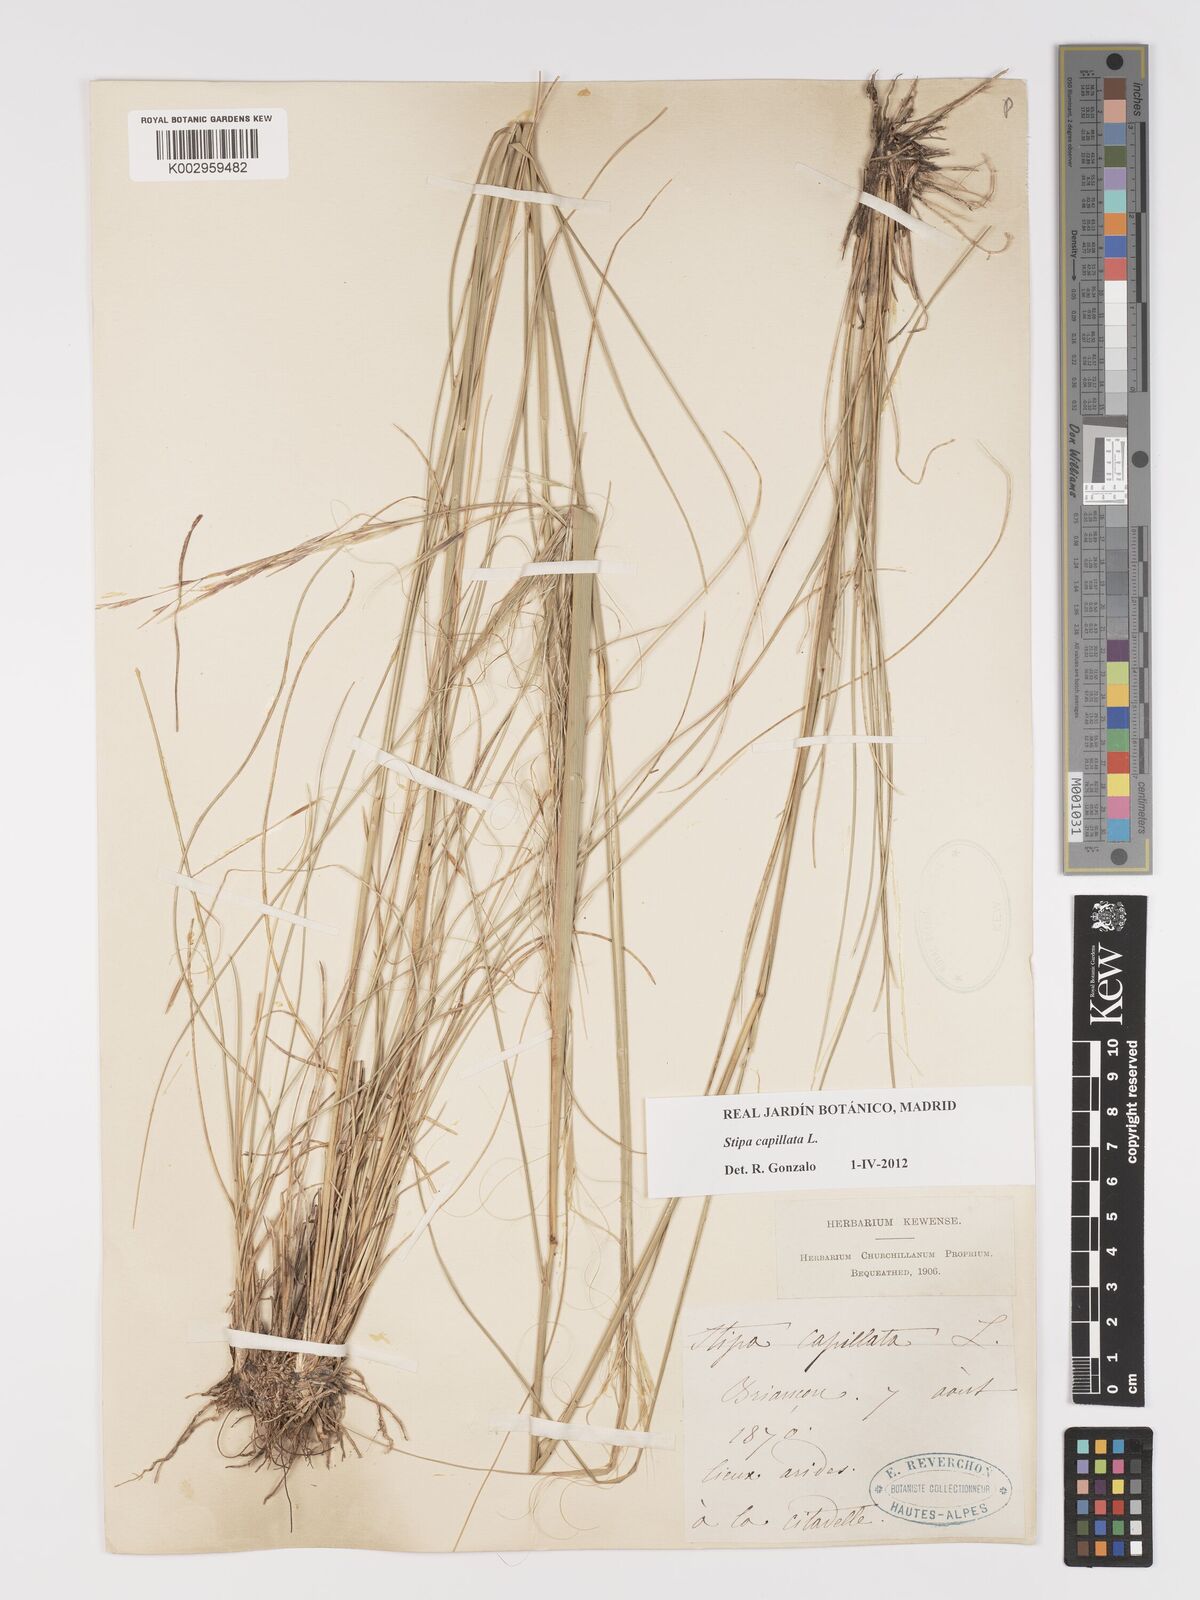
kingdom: Plantae
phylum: Tracheophyta
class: Liliopsida
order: Poales
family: Poaceae
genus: Stipa
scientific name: Stipa capillata
